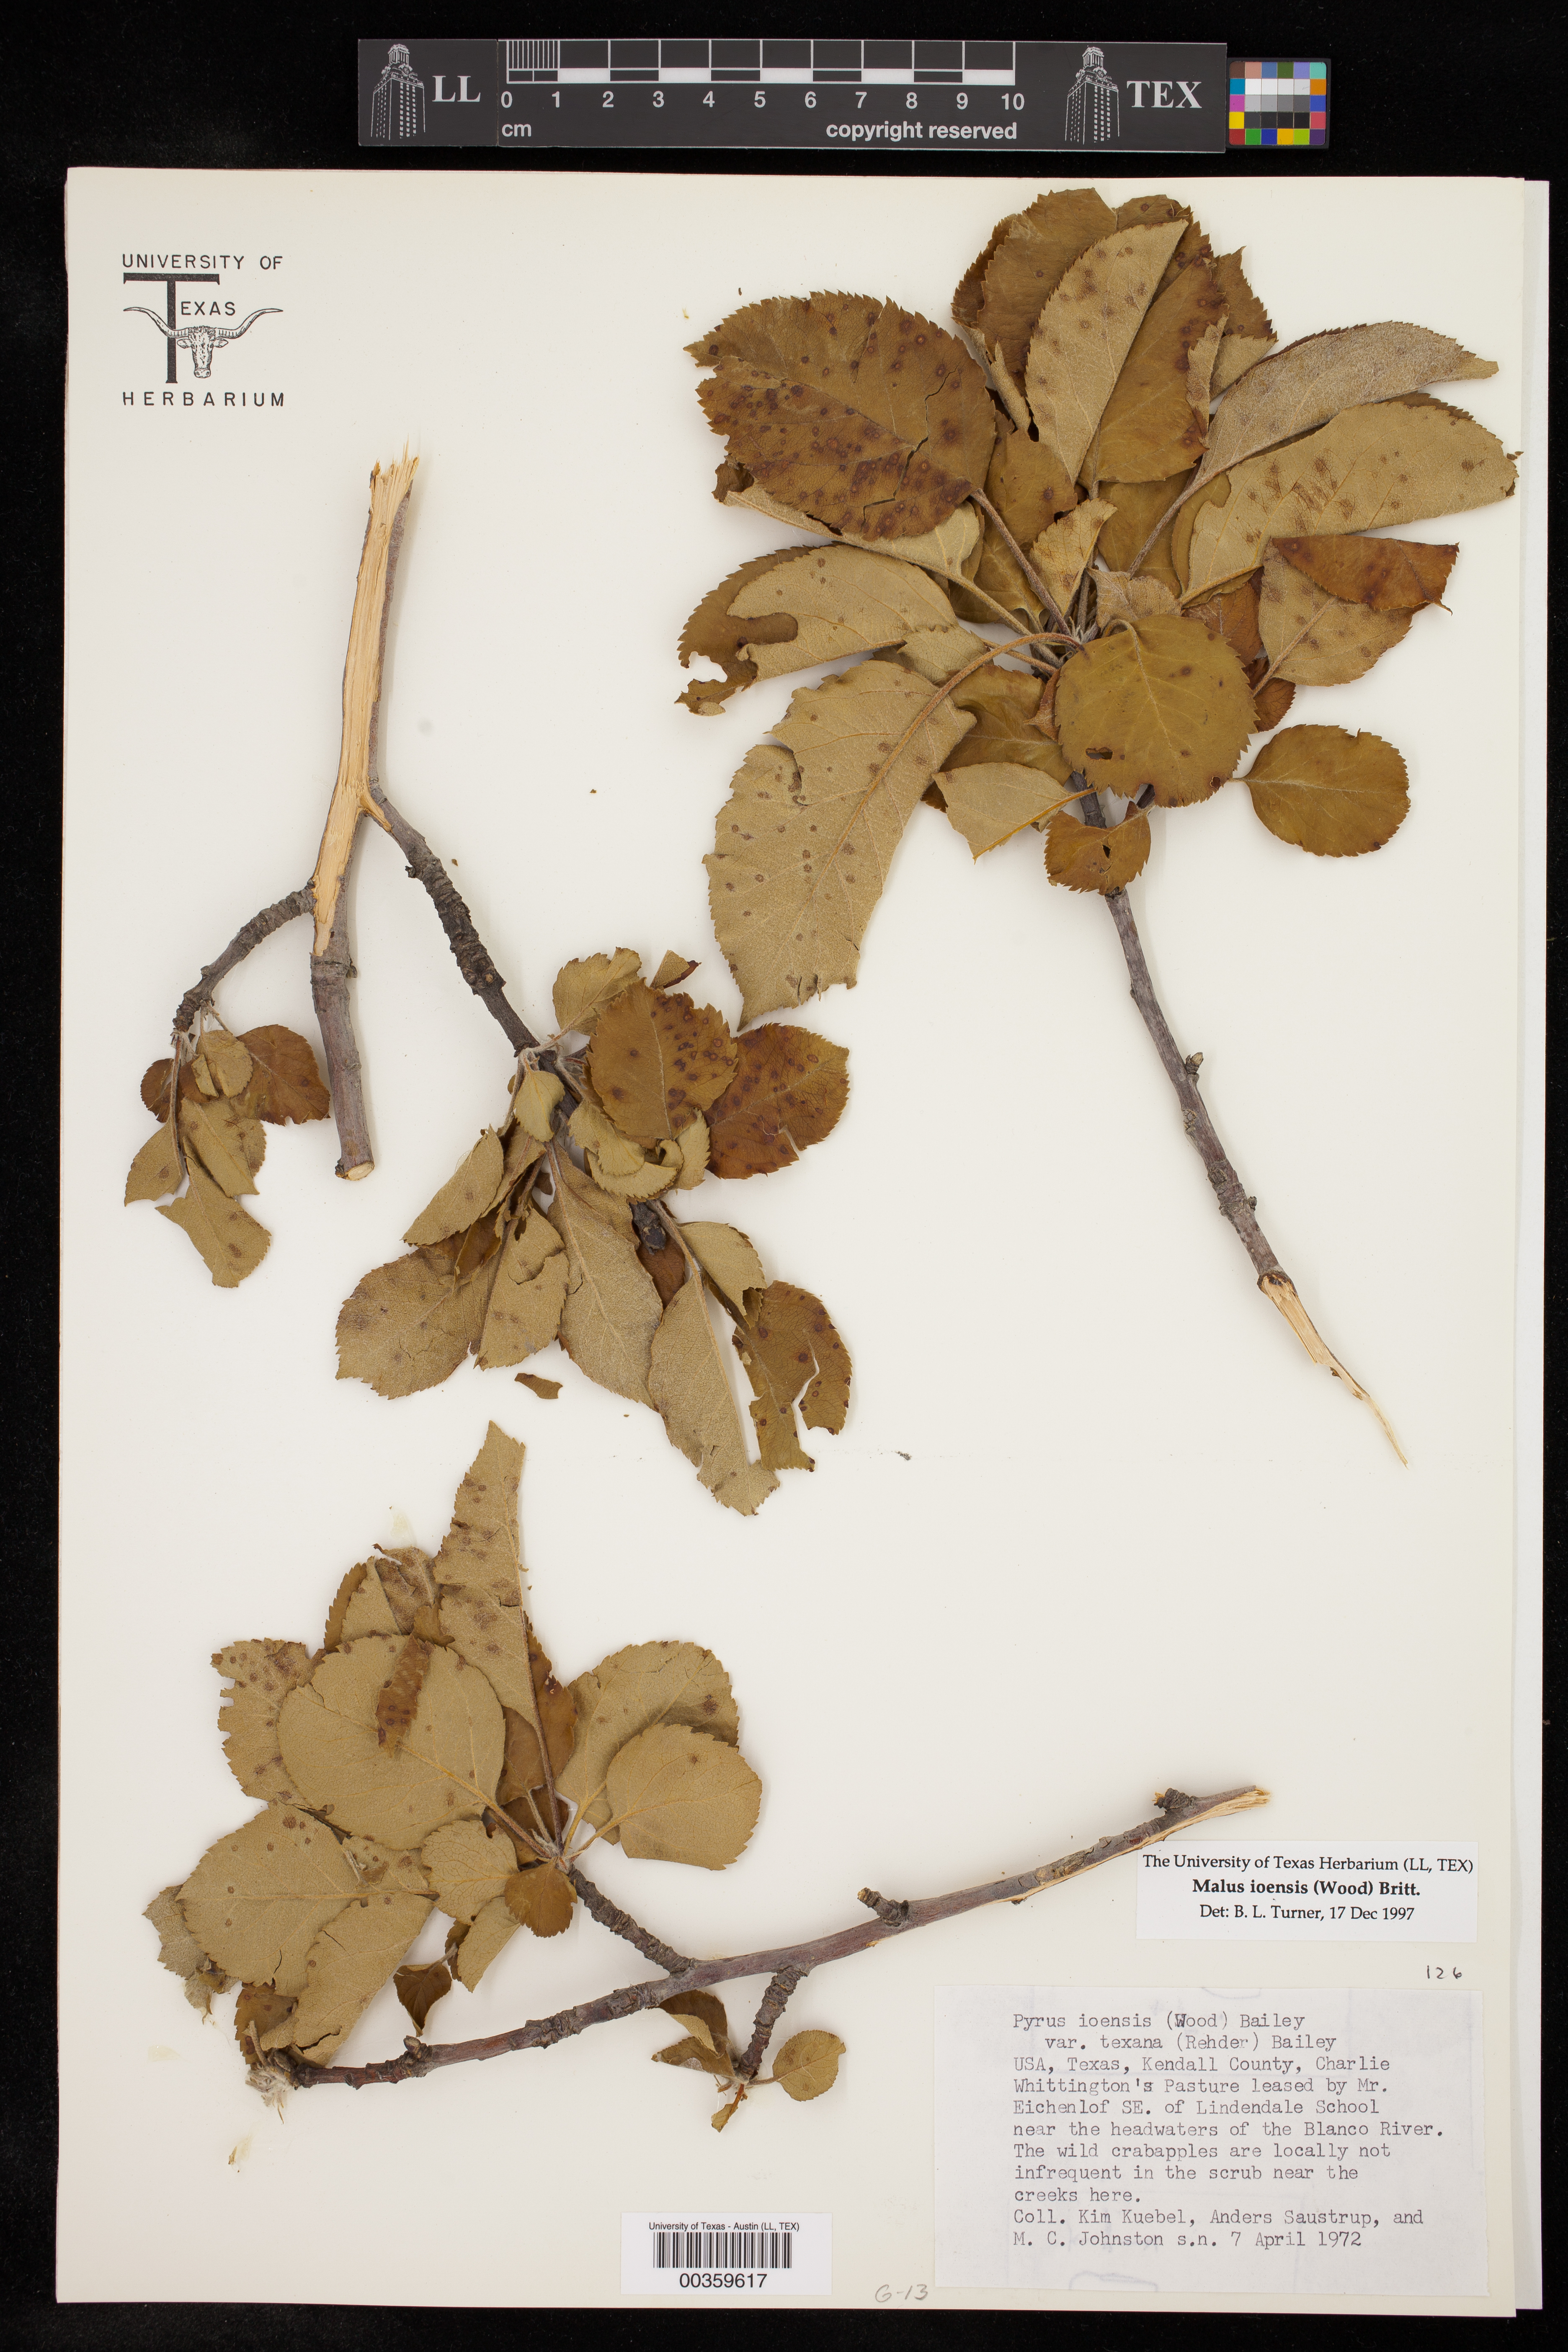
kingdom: Plantae
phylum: Tracheophyta
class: Magnoliopsida
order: Rosales
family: Rosaceae
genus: Malus
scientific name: Malus ioensis
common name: Iowa crab apple
